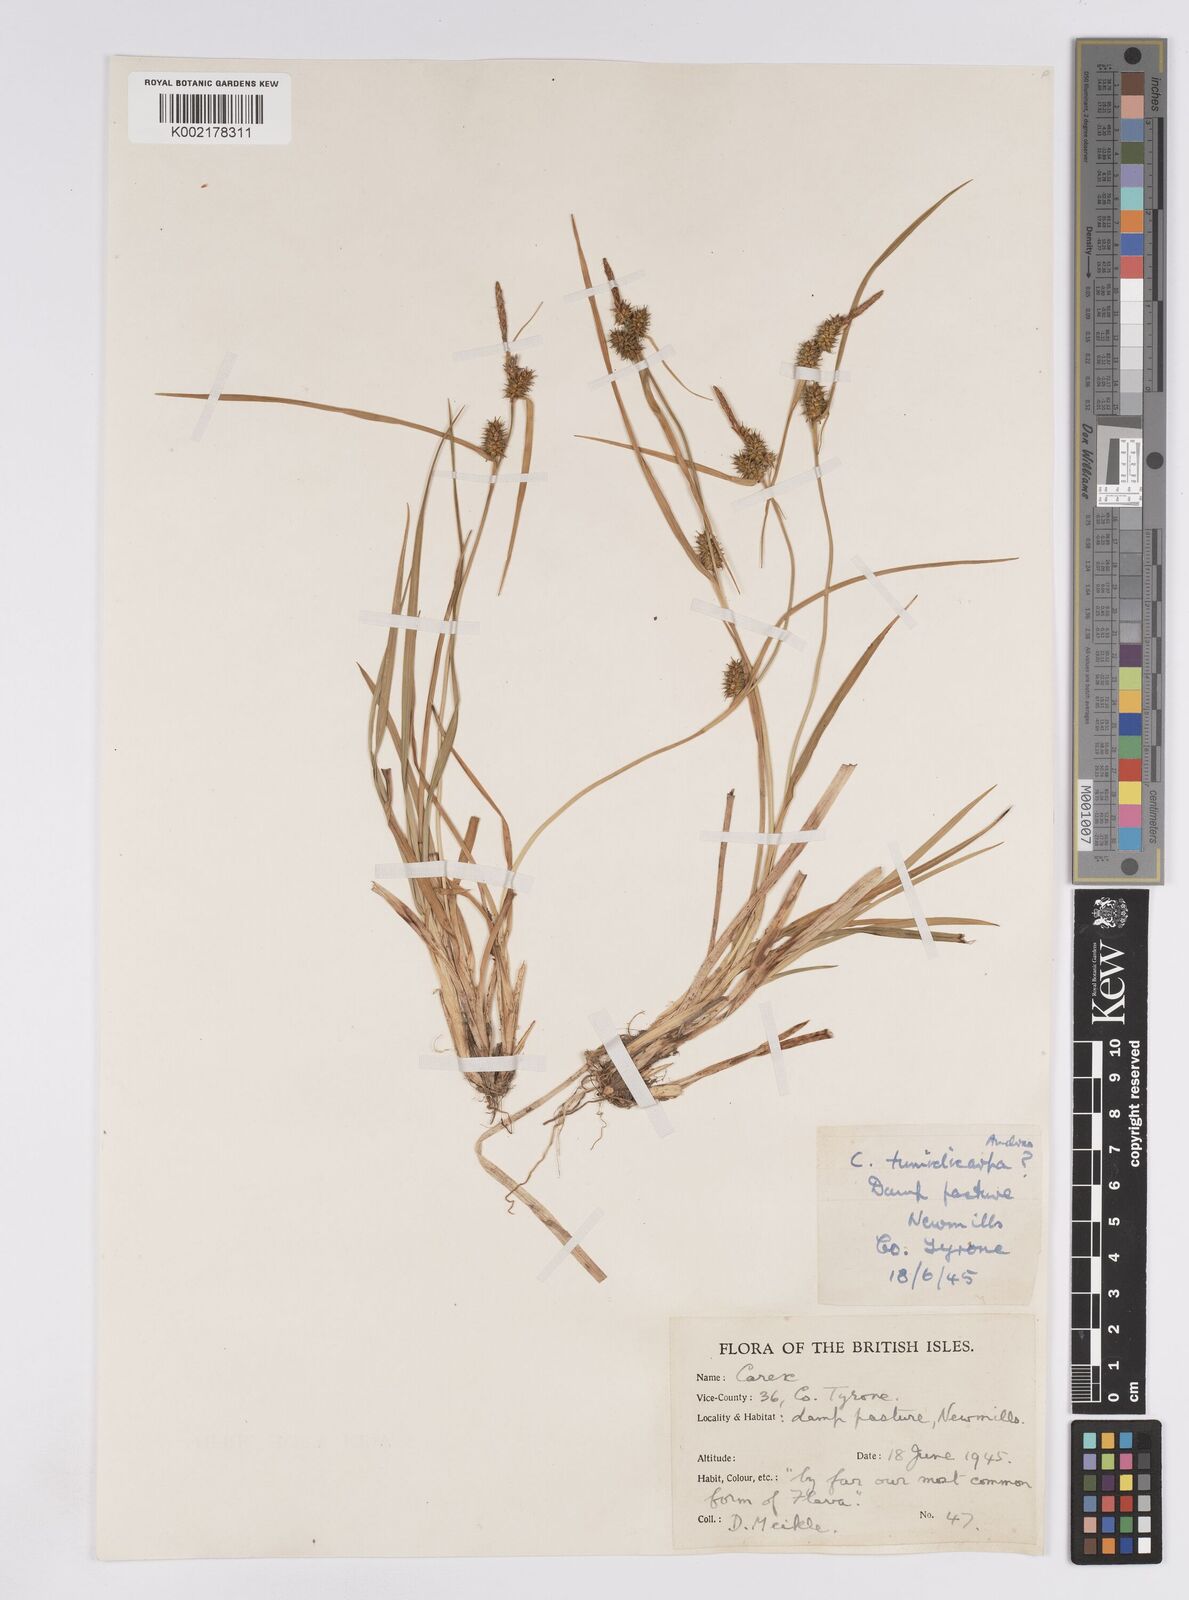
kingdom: Plantae
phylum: Tracheophyta
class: Liliopsida
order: Poales
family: Cyperaceae
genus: Carex
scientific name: Carex demissa
